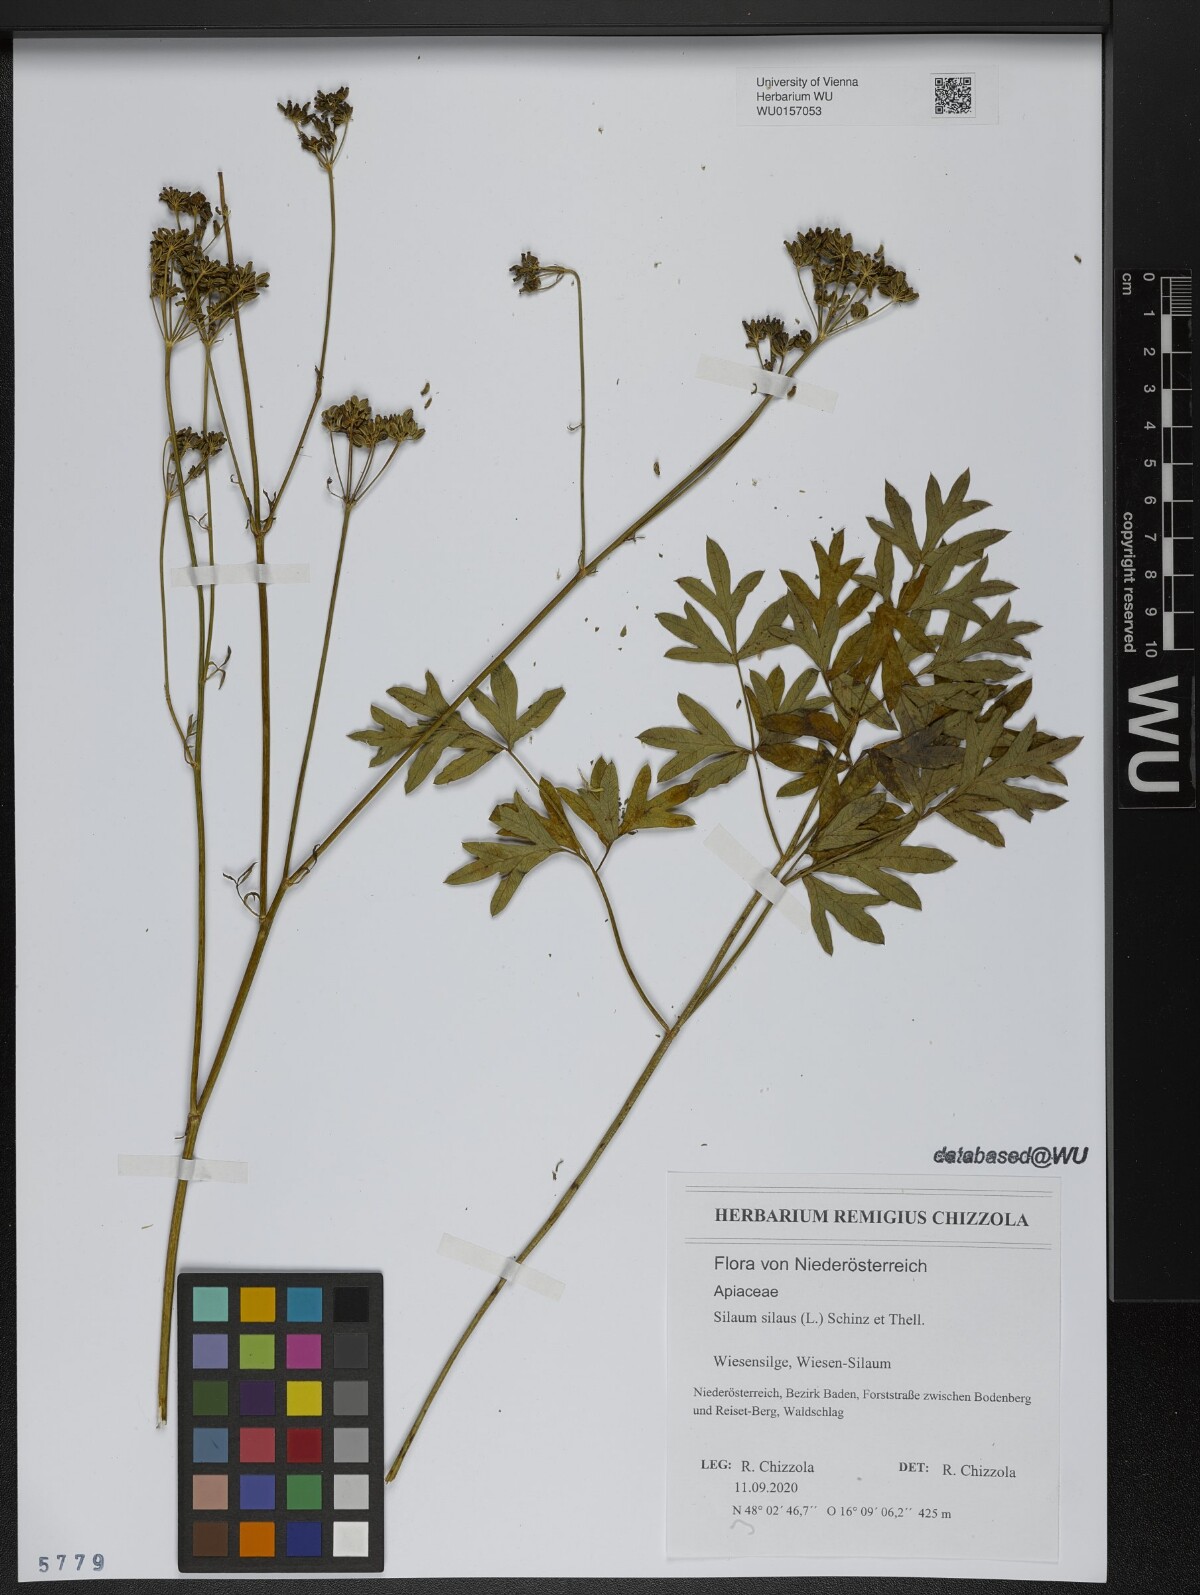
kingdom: Plantae
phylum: Tracheophyta
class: Magnoliopsida
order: Apiales
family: Apiaceae
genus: Silaum
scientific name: Silaum silaus
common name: Pepper-saxifrage
